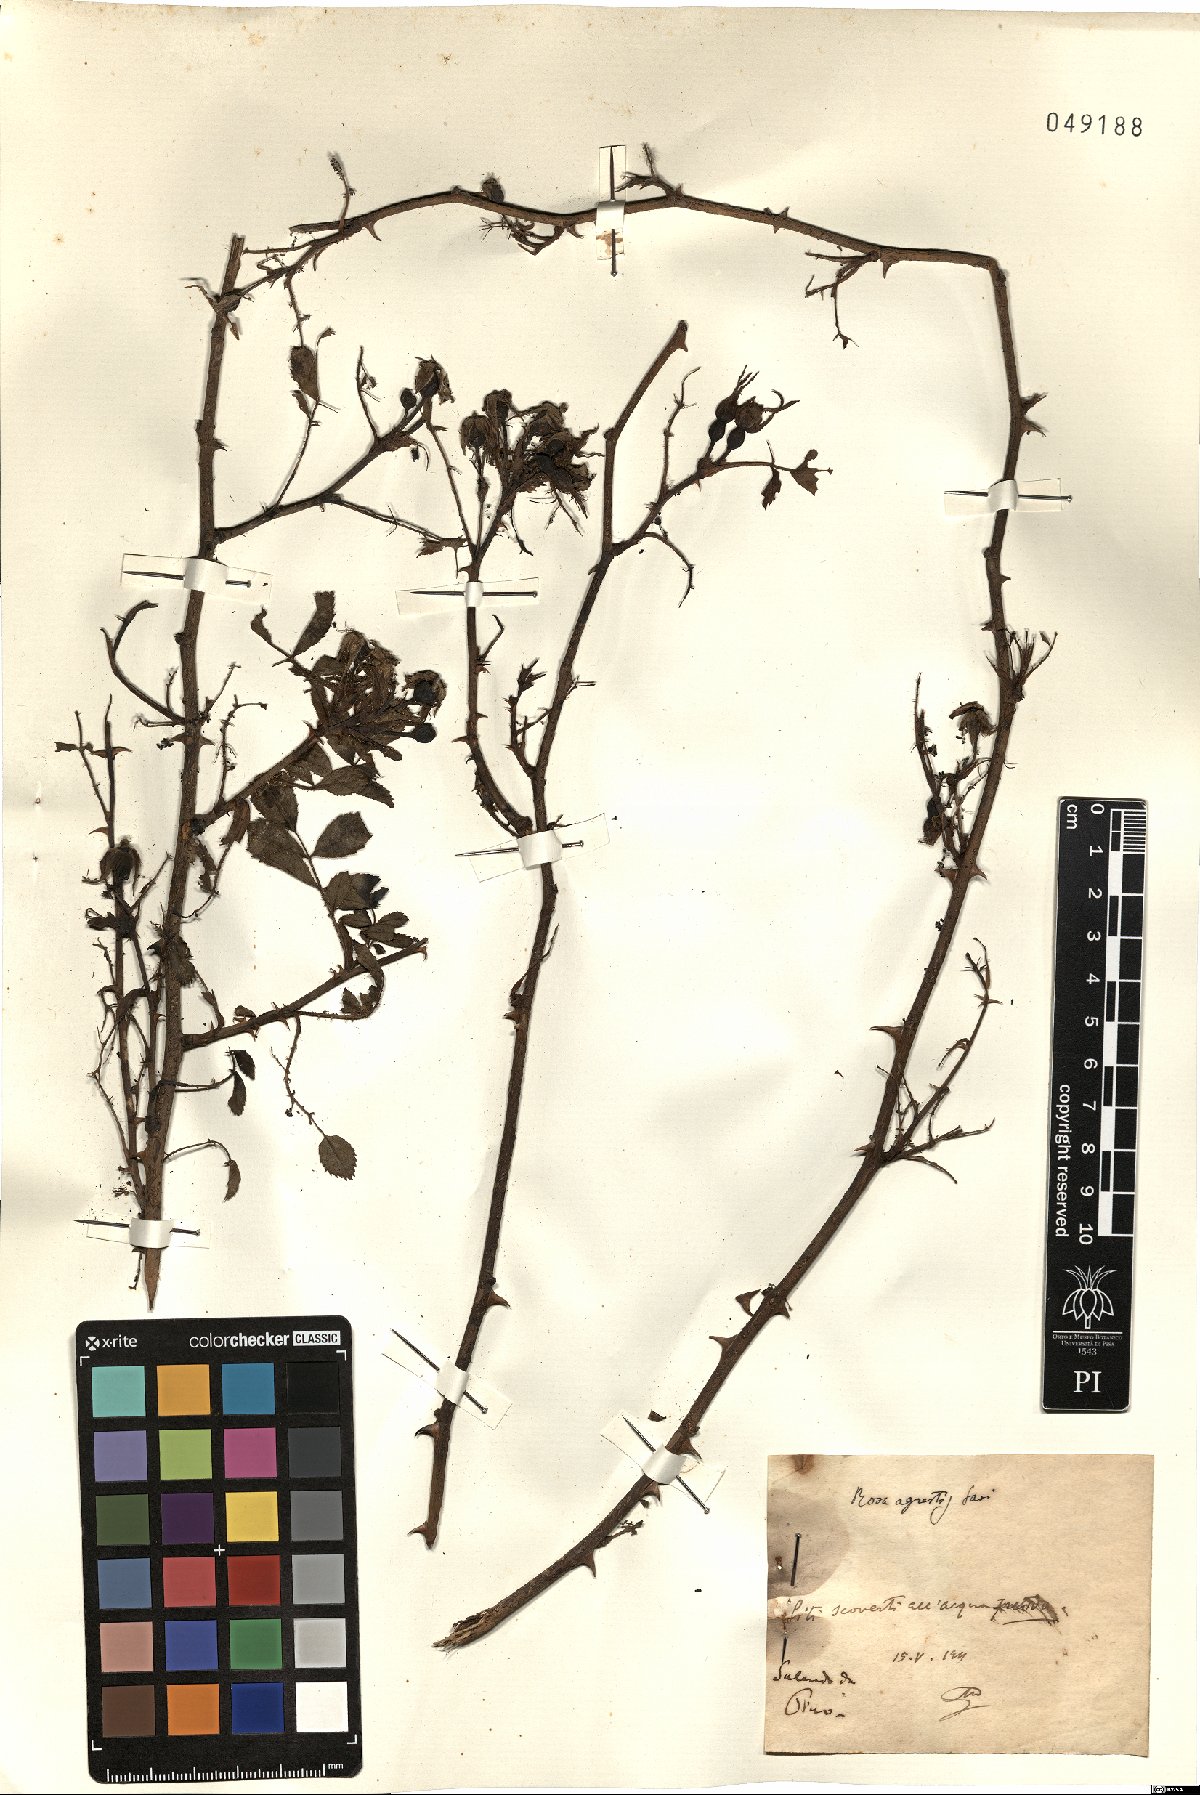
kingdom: Plantae
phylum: Tracheophyta
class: Magnoliopsida
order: Rosales
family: Rosaceae
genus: Rosa
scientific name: Rosa agrestis
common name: Fieldbriar
